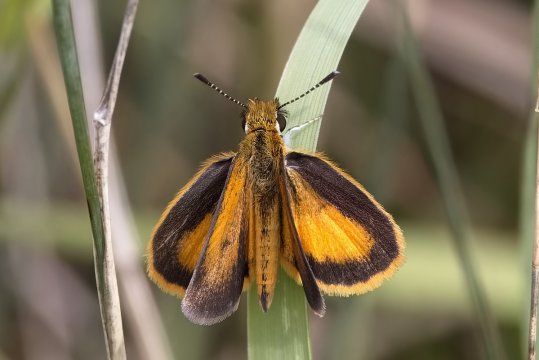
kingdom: Animalia
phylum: Arthropoda
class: Insecta
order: Lepidoptera
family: Hesperiidae
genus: Ancyloxypha
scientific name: Ancyloxypha numitor
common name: Least Skipper
